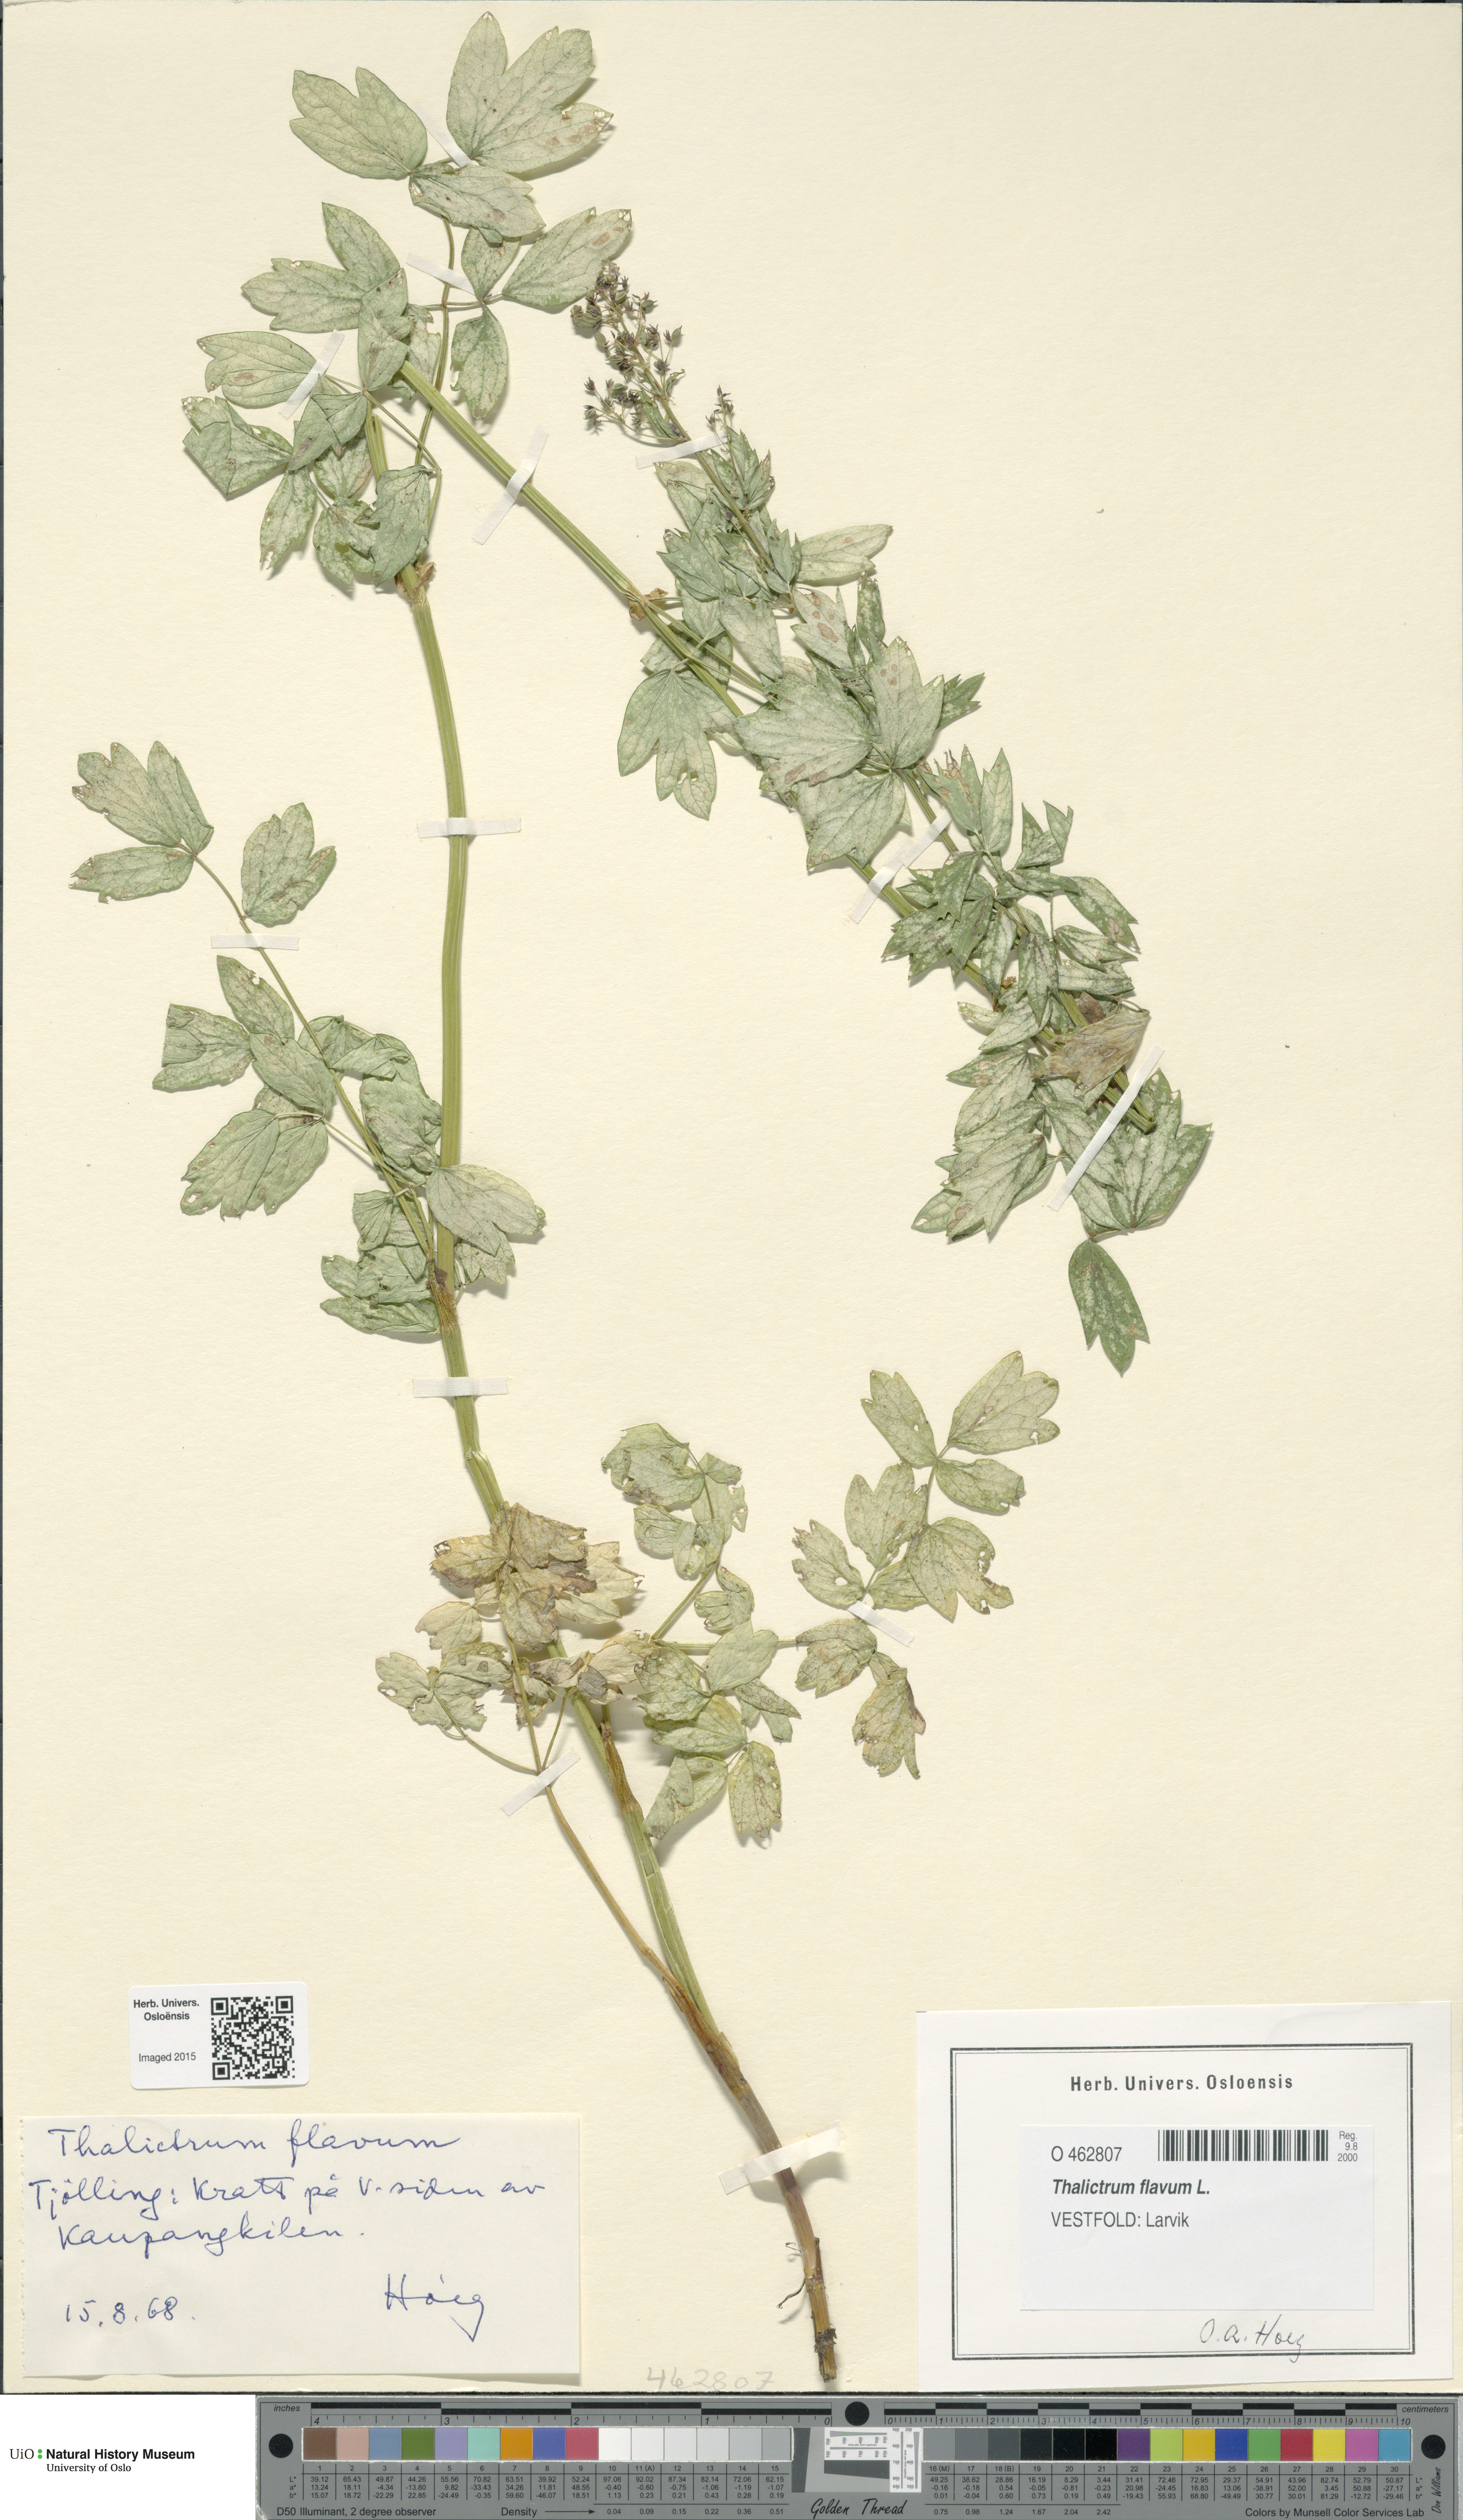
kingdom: Plantae
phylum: Tracheophyta
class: Magnoliopsida
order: Ranunculales
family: Ranunculaceae
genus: Thalictrum
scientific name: Thalictrum flavum
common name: Common meadow-rue
